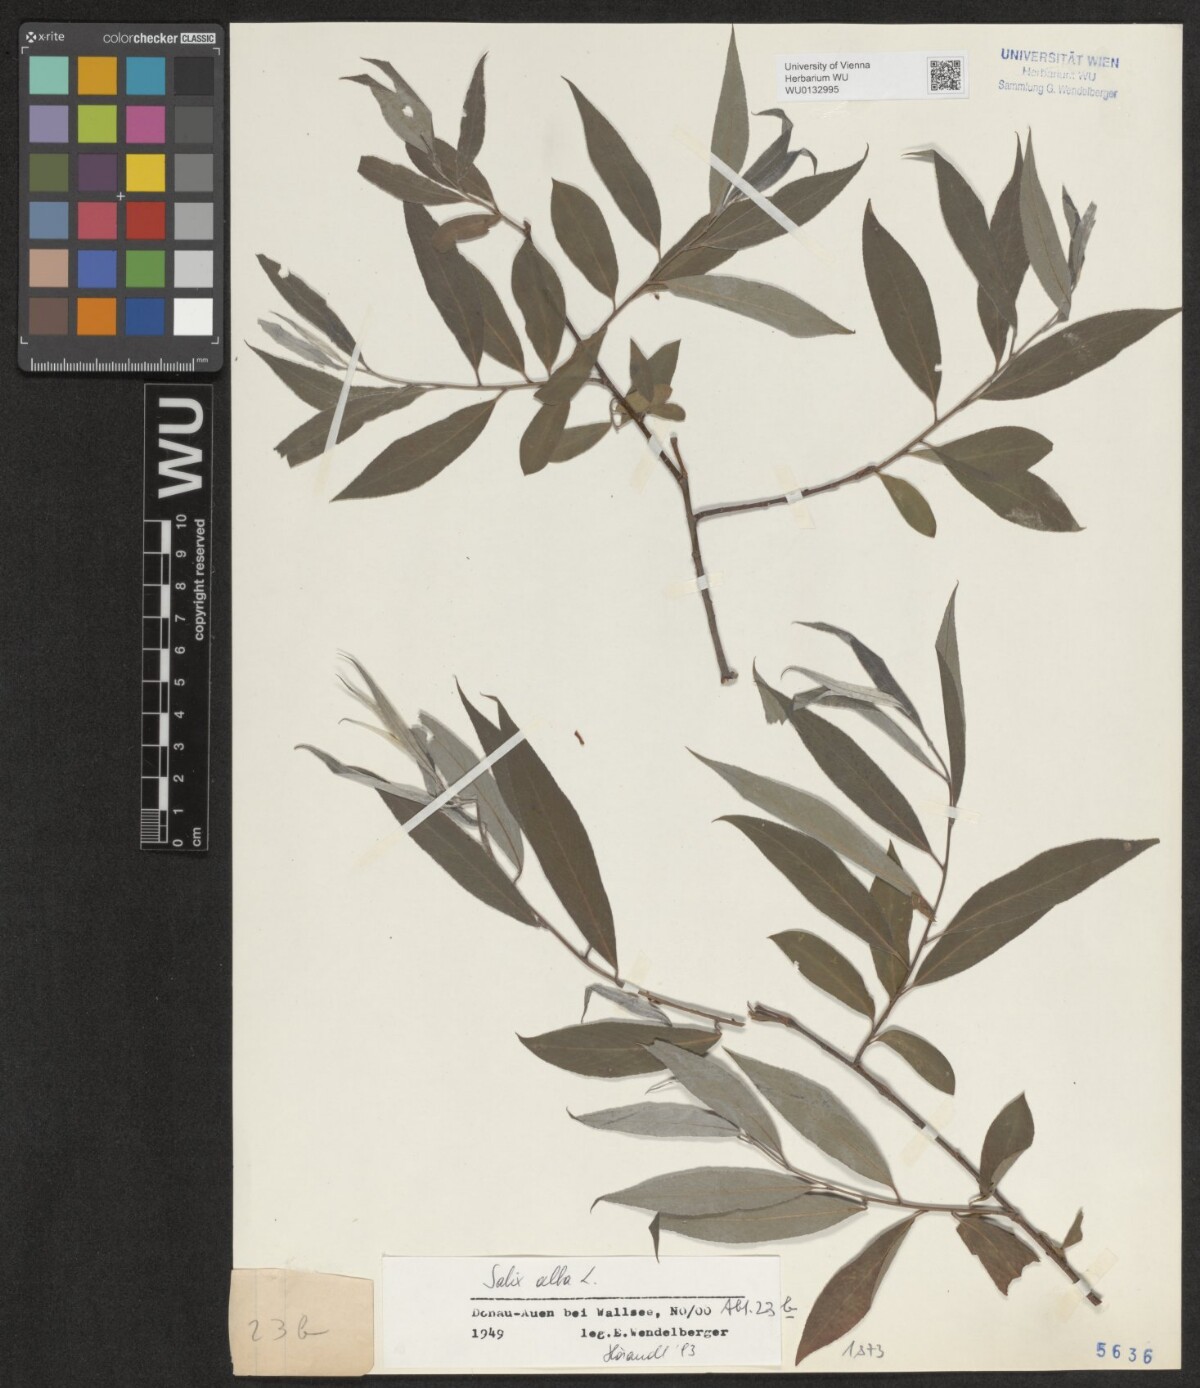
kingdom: Plantae
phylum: Tracheophyta
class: Magnoliopsida
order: Malpighiales
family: Salicaceae
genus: Salix
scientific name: Salix alba
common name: White willow
